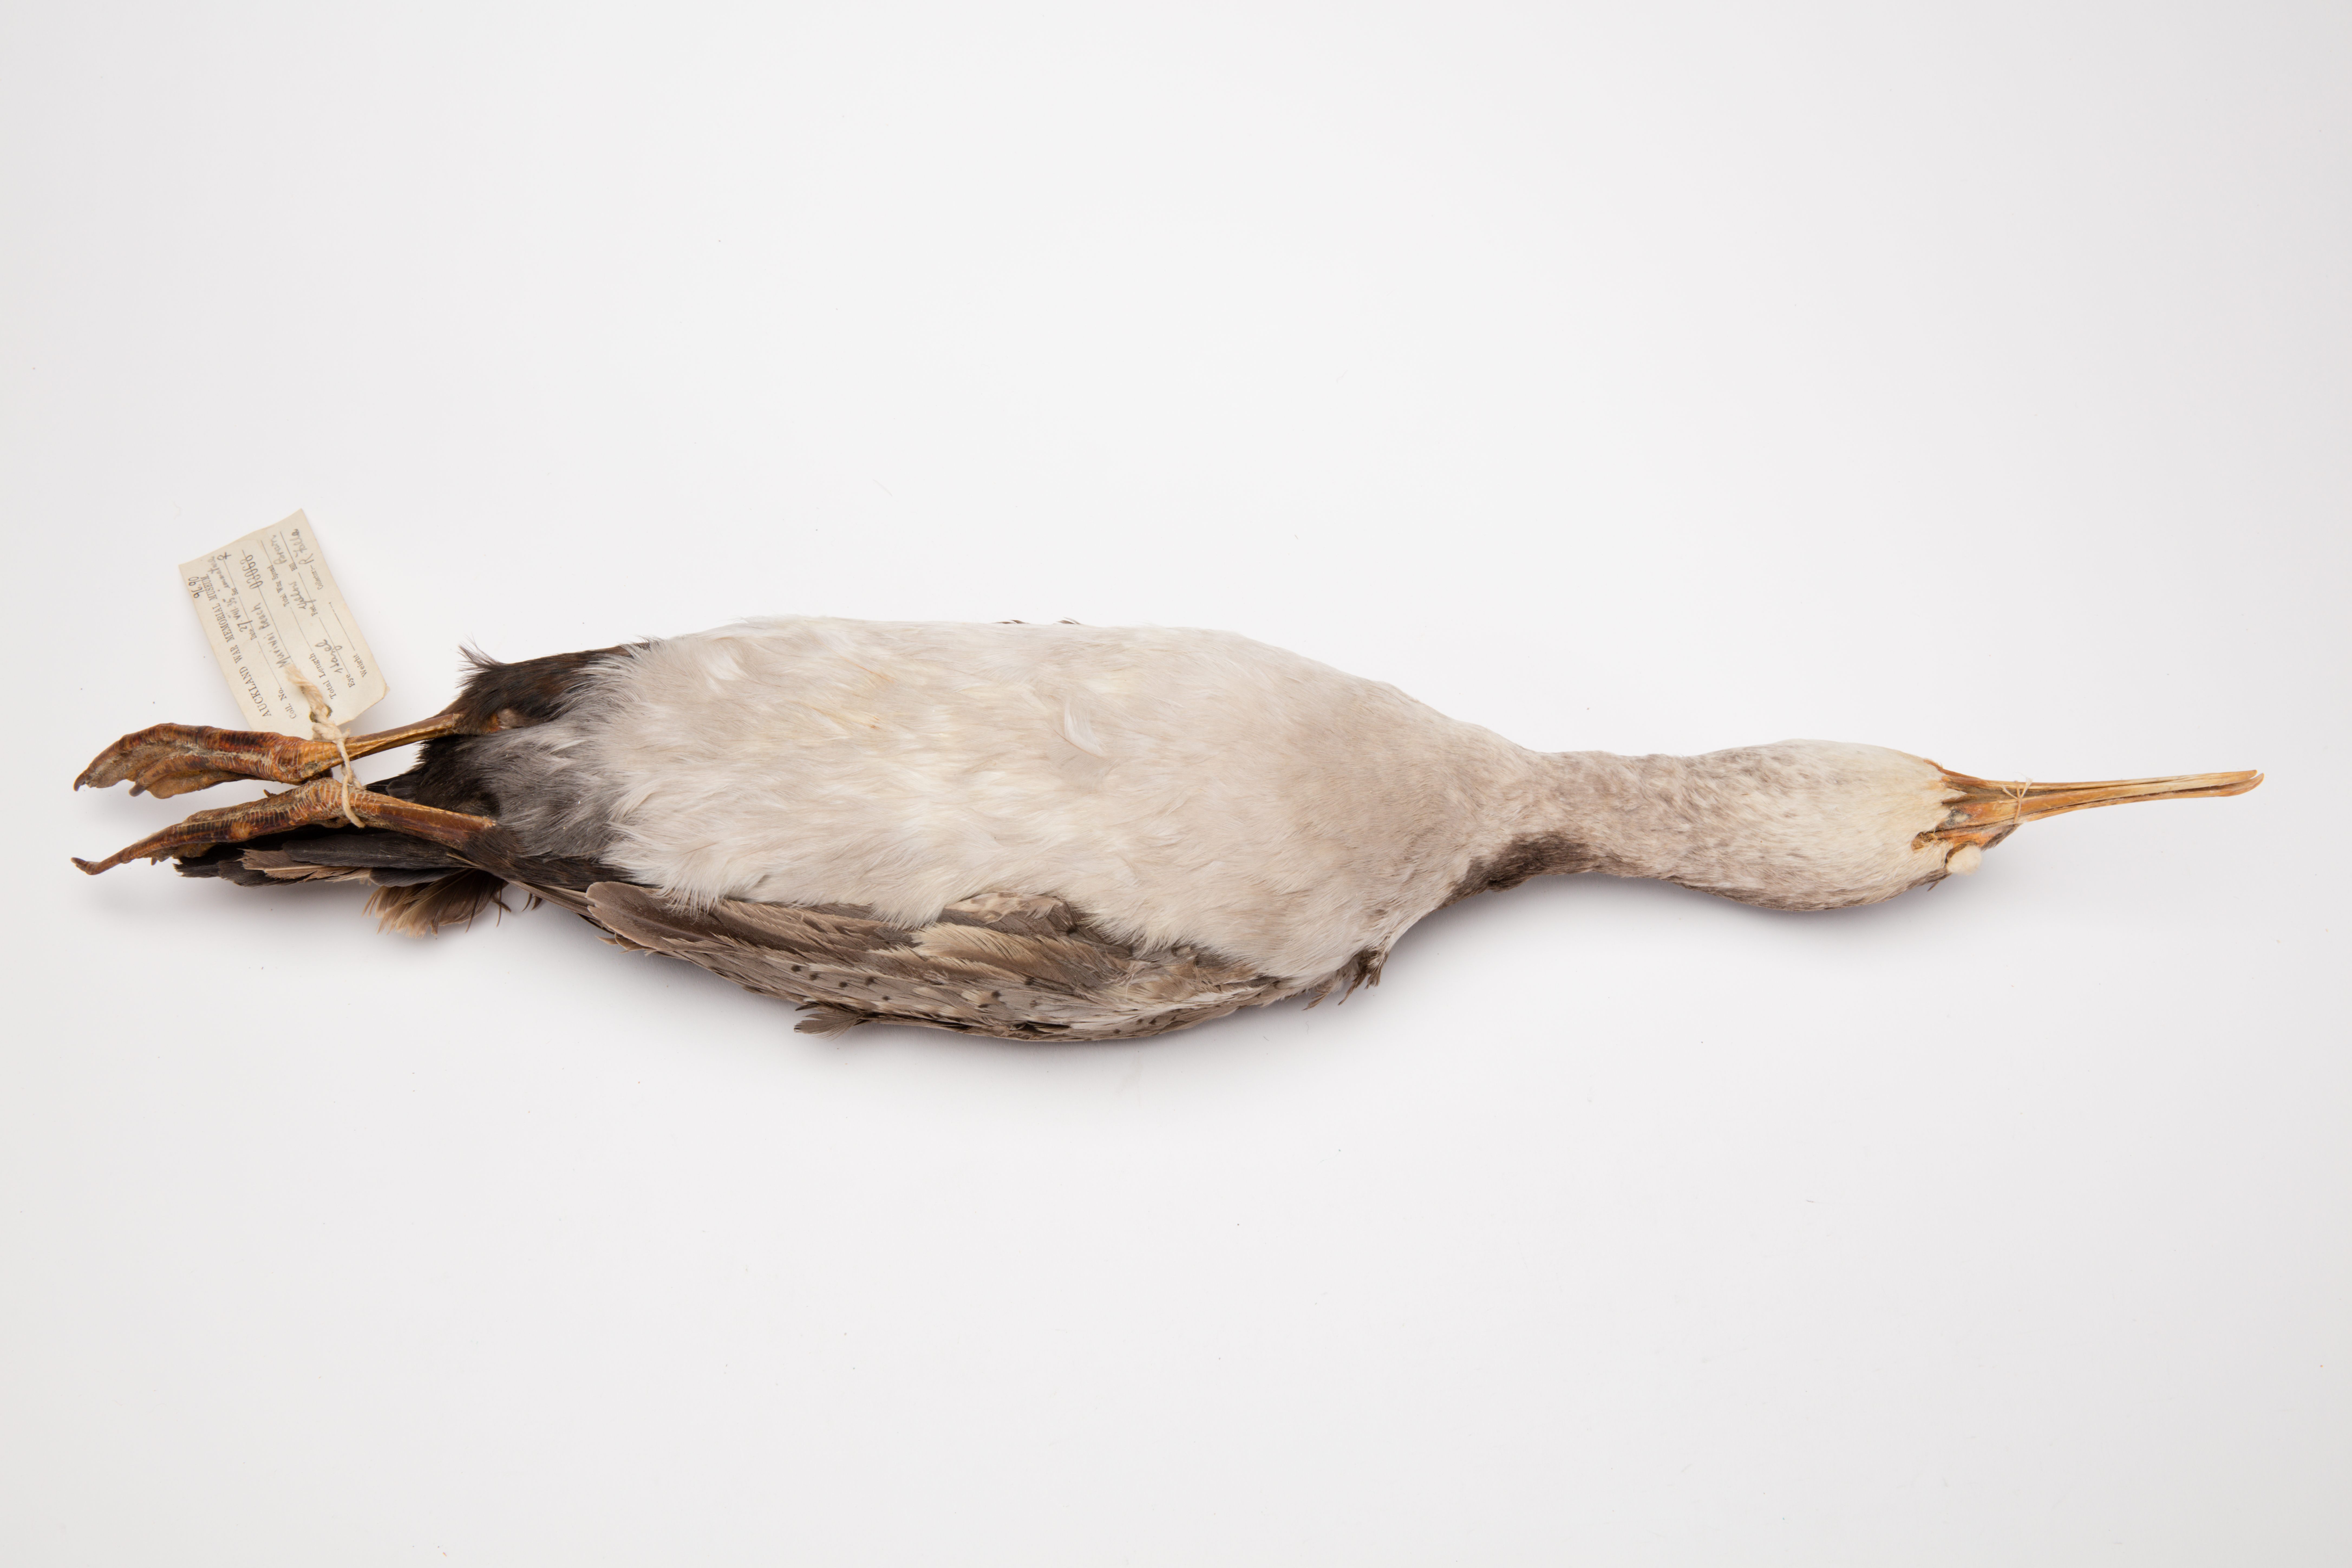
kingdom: Animalia
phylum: Chordata
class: Aves
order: Suliformes
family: Phalacrocoracidae
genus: Phalacrocorax
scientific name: Phalacrocorax punctatus
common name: Spotted shag
